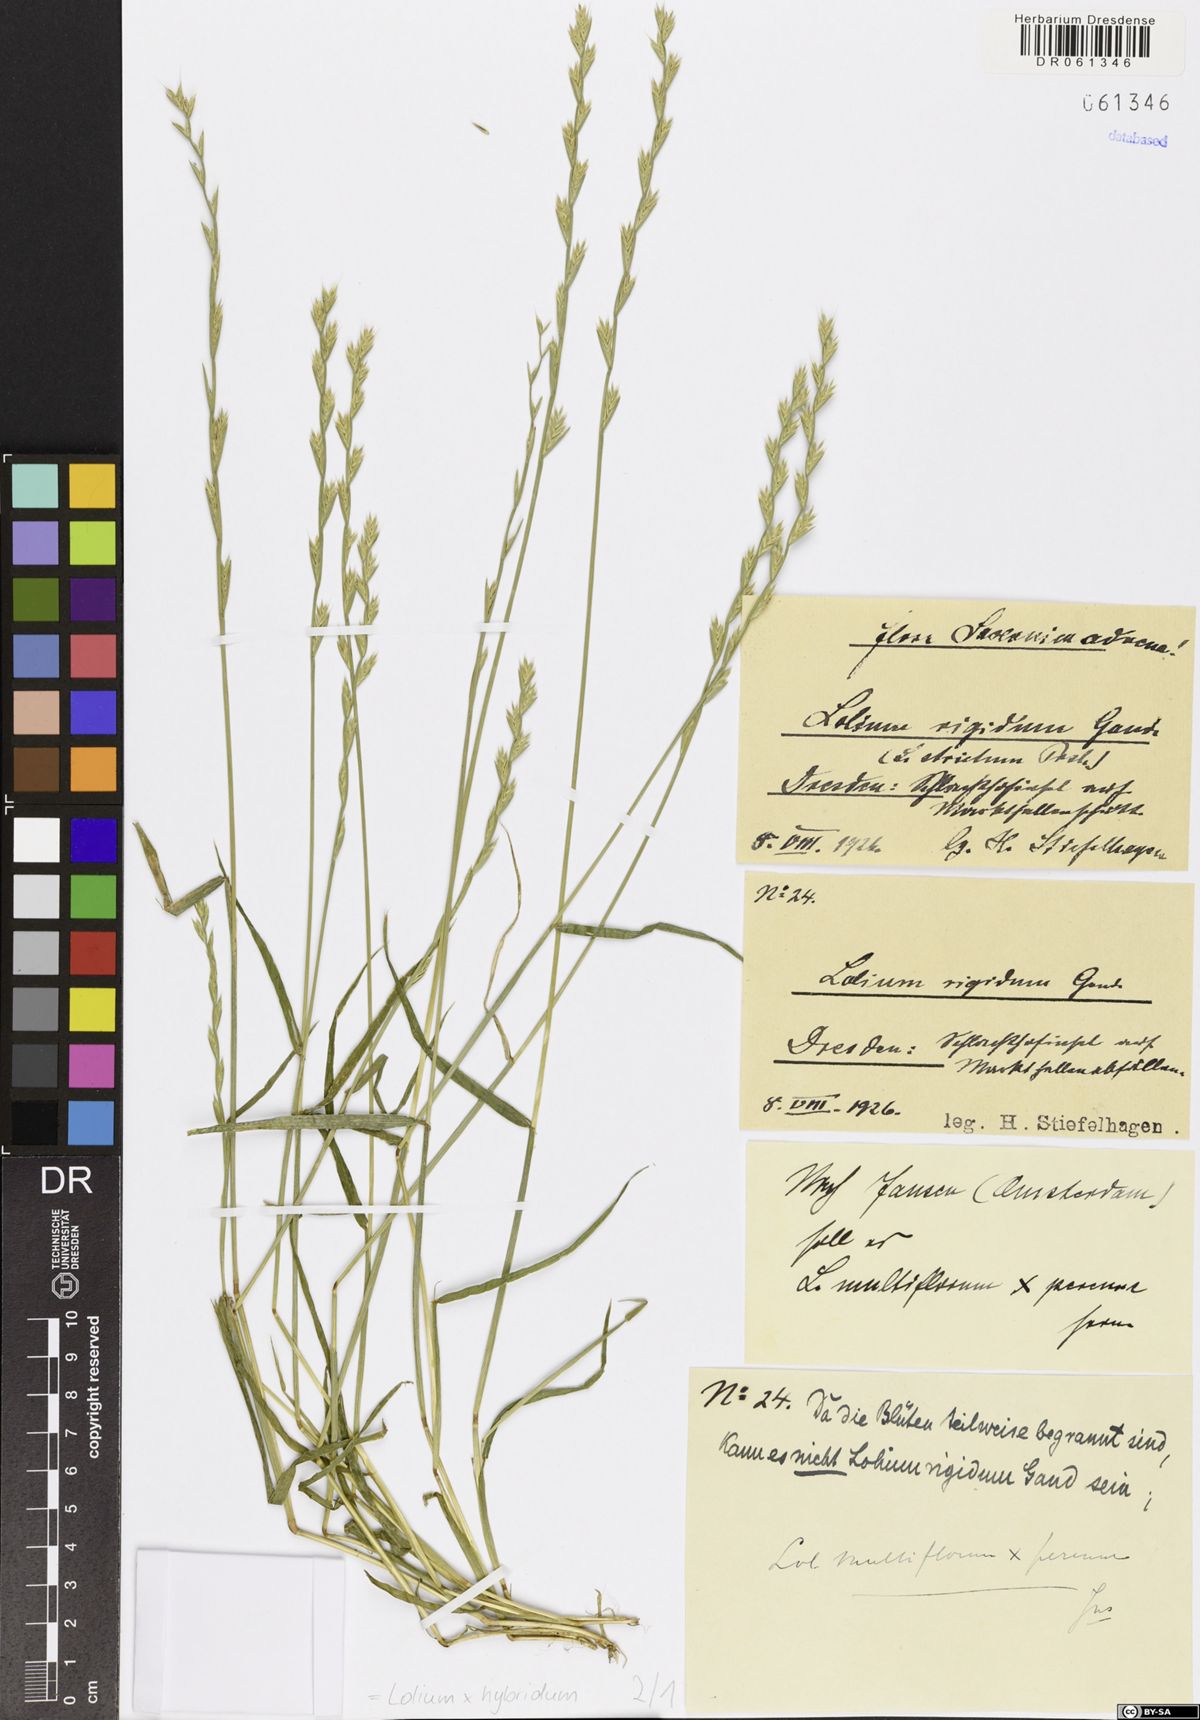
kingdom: Plantae
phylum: Tracheophyta
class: Liliopsida
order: Poales
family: Poaceae
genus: Lolium
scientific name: Lolium boucheanum
